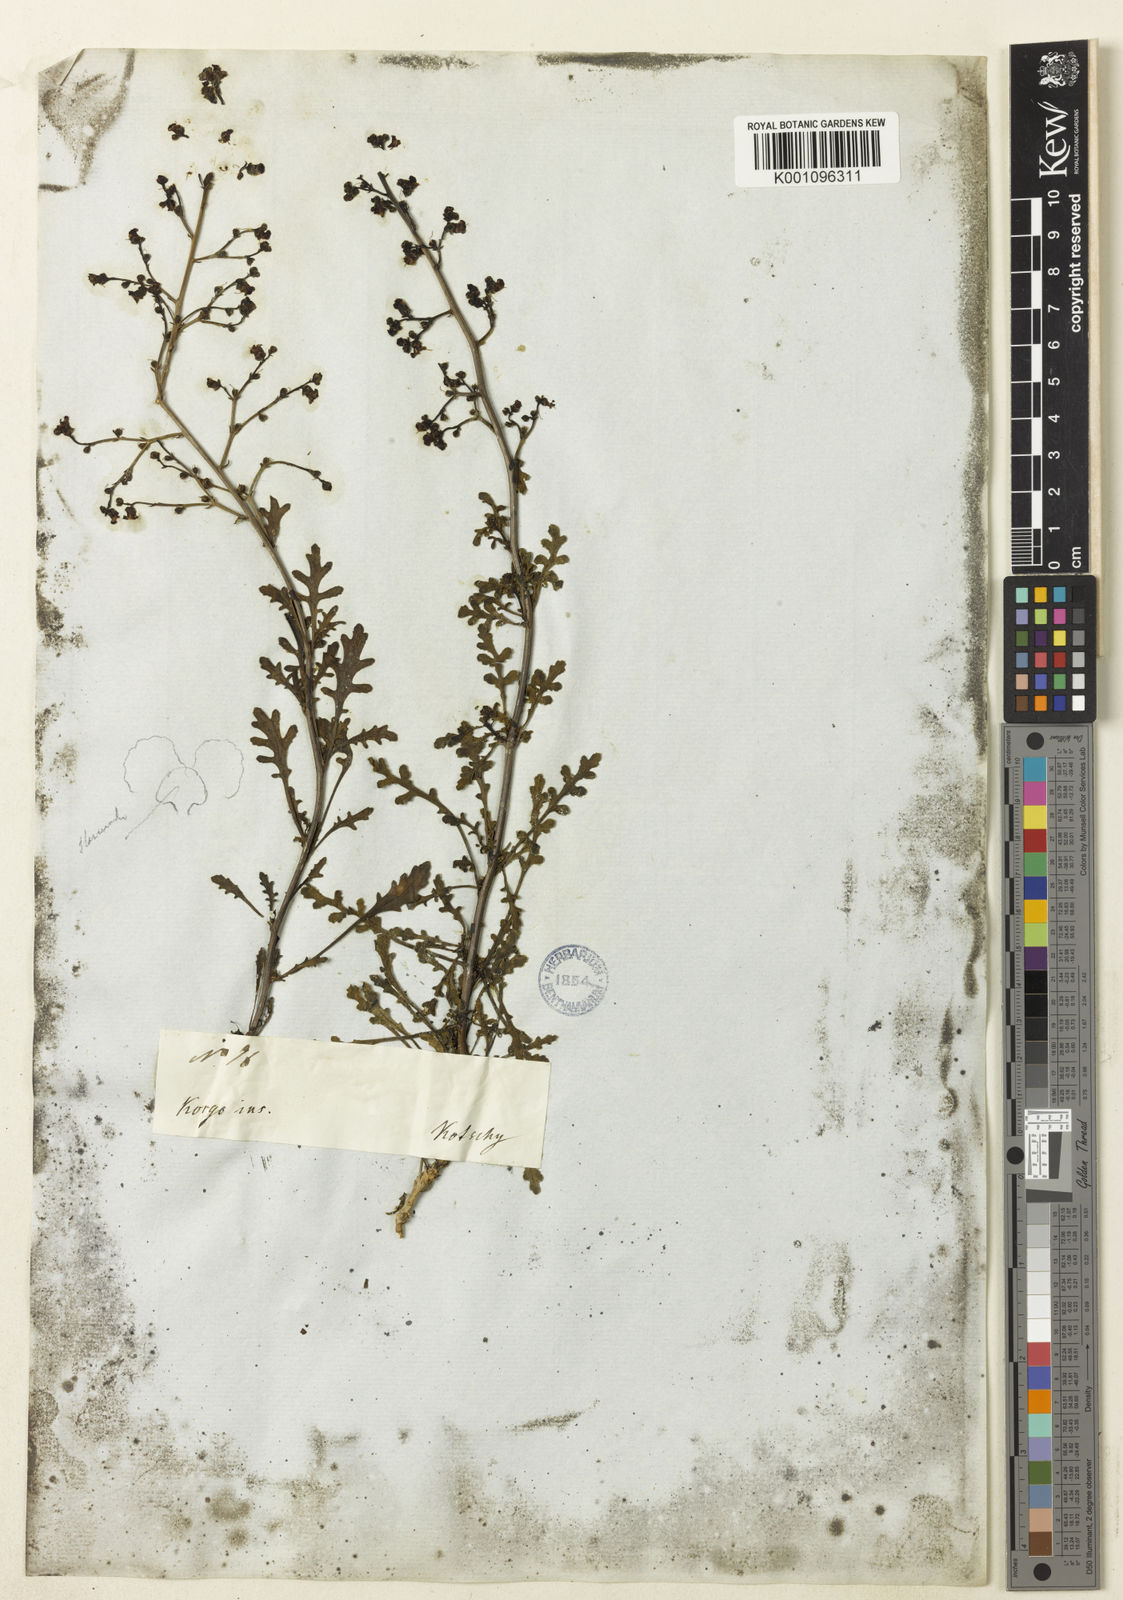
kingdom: Plantae
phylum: Tracheophyta
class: Magnoliopsida
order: Lamiales
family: Scrophulariaceae
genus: Scrophularia
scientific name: Scrophularia dentata
